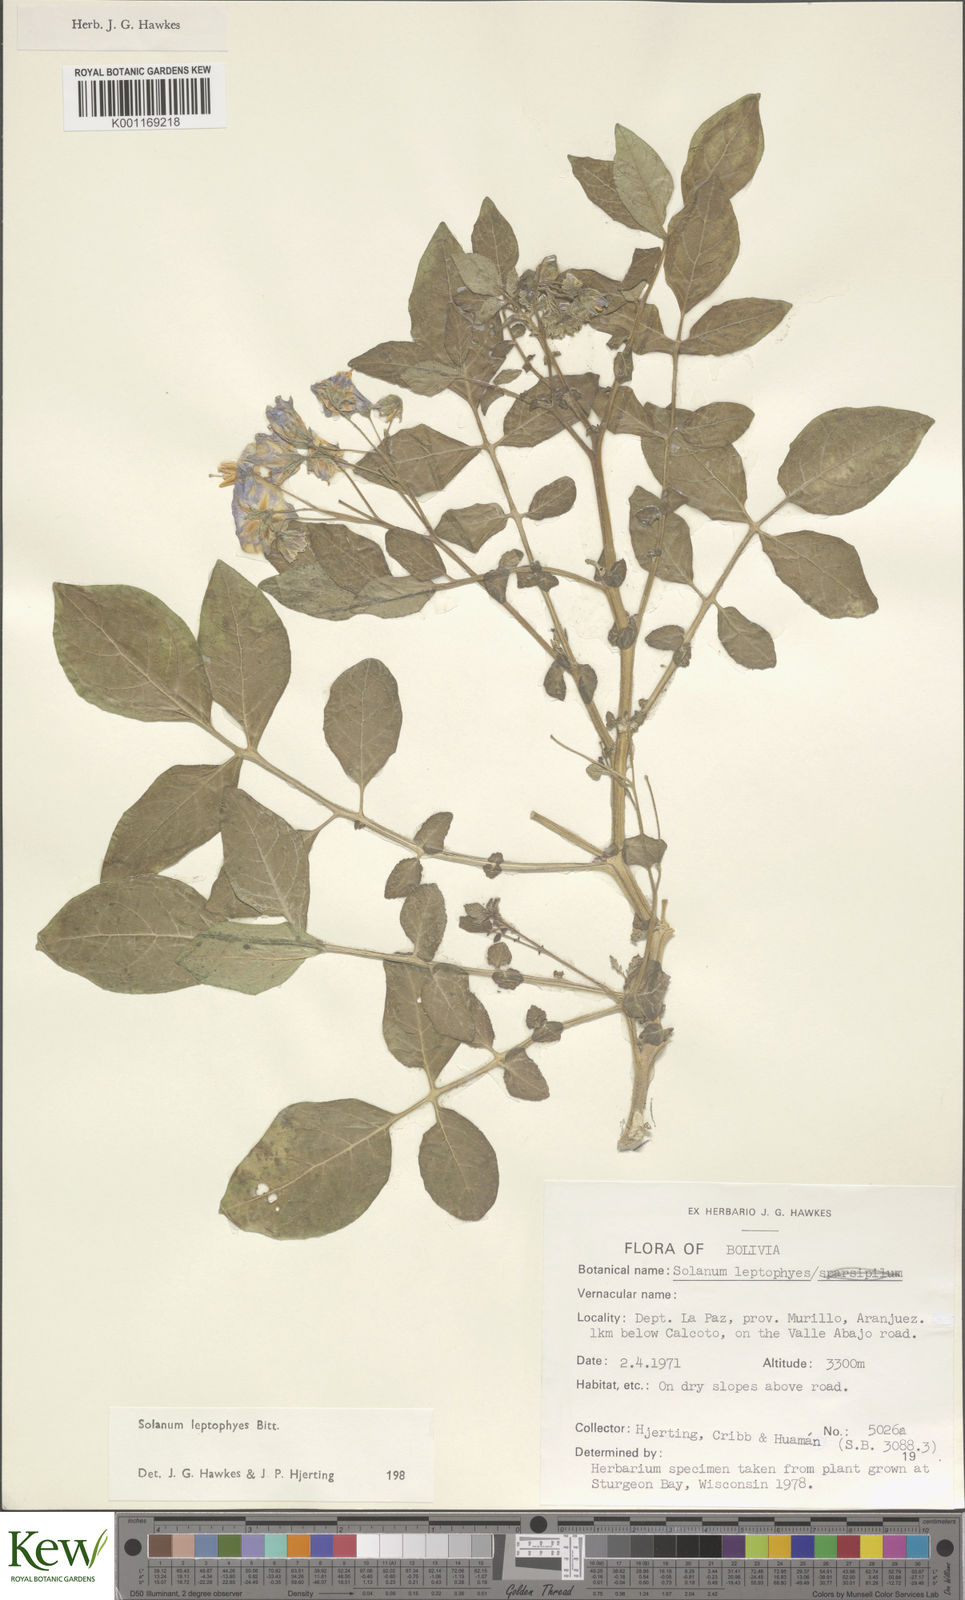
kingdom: Plantae
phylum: Tracheophyta
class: Magnoliopsida
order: Solanales
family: Solanaceae
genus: Solanum
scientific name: Solanum brevicaule
